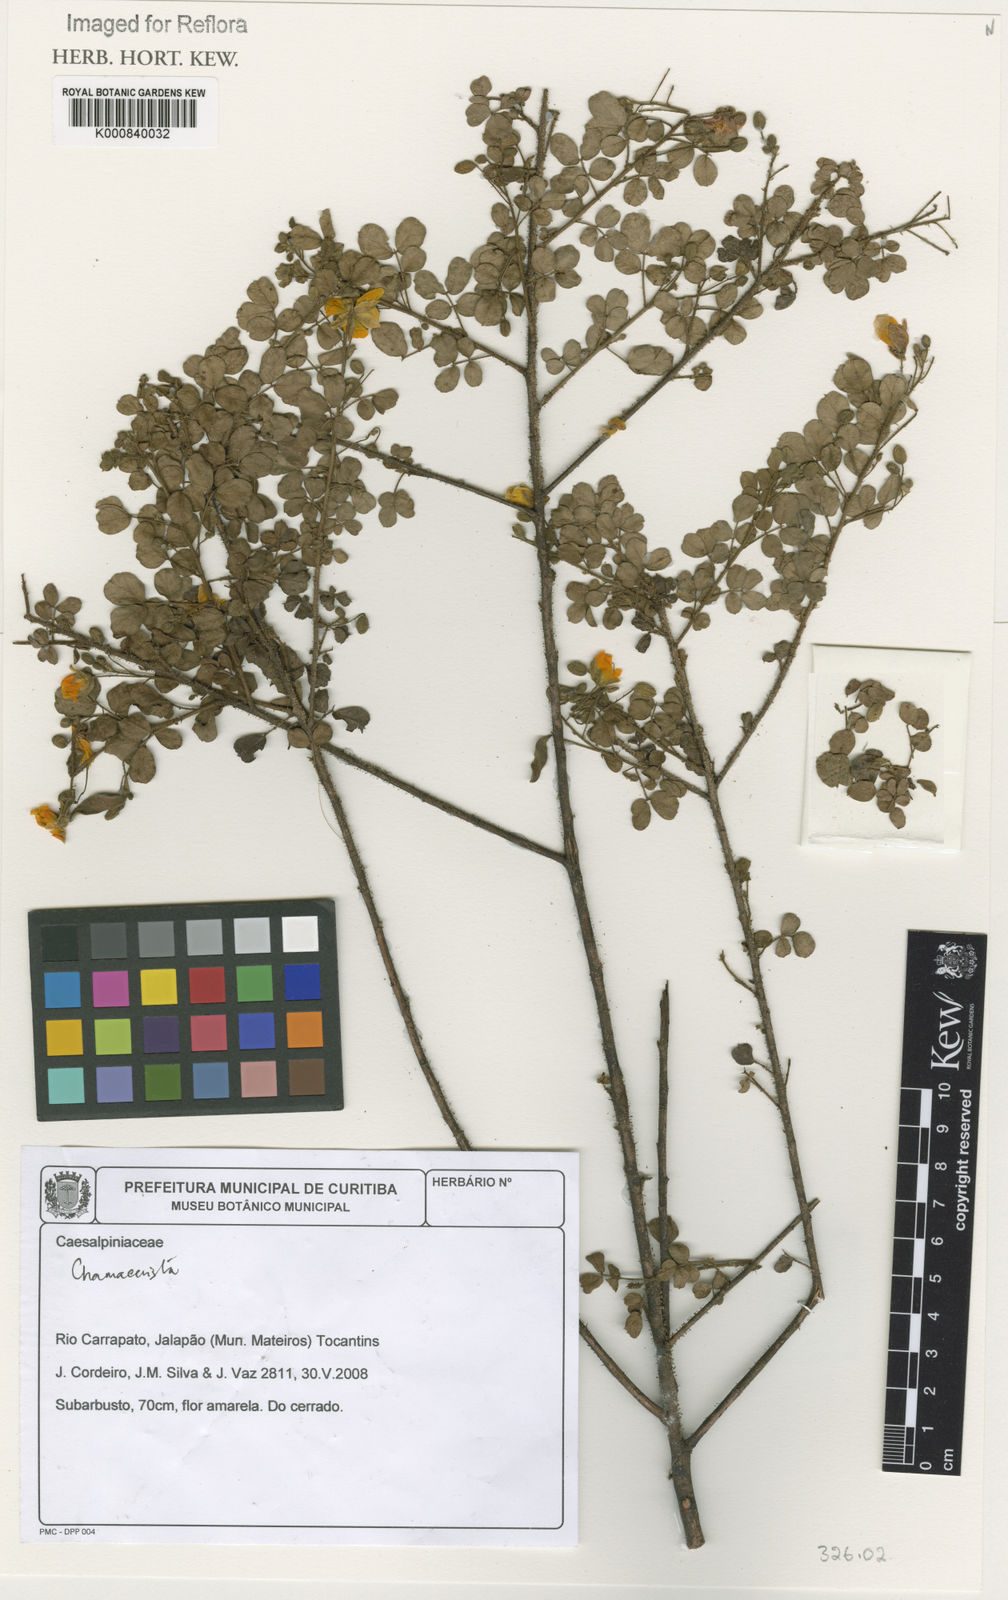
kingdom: Plantae
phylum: Tracheophyta
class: Magnoliopsida
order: Fabales
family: Fabaceae
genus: Chamaecrista
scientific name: Chamaecrista
